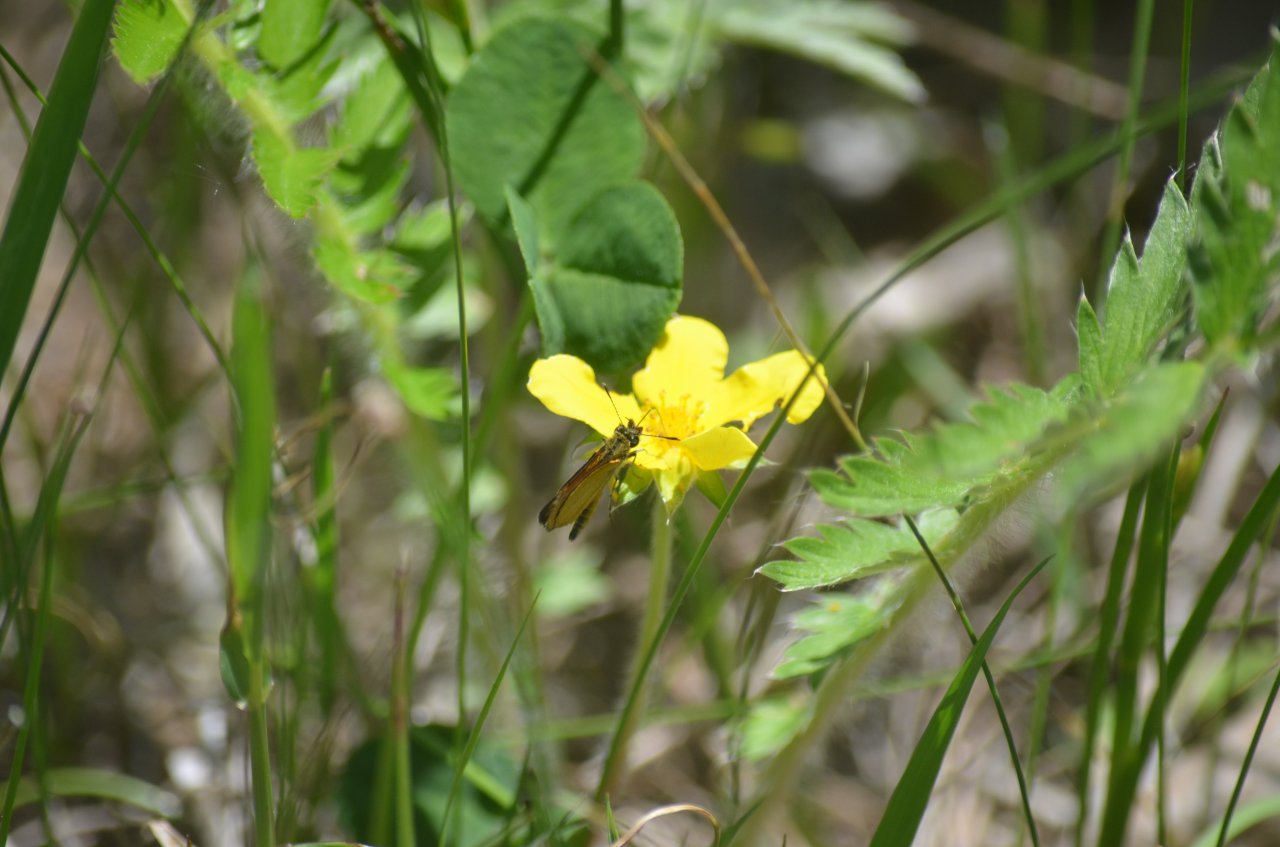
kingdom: Animalia
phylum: Arthropoda
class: Insecta
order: Lepidoptera
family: Hesperiidae
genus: Ancyloxypha
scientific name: Ancyloxypha numitor
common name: Least Skipper
